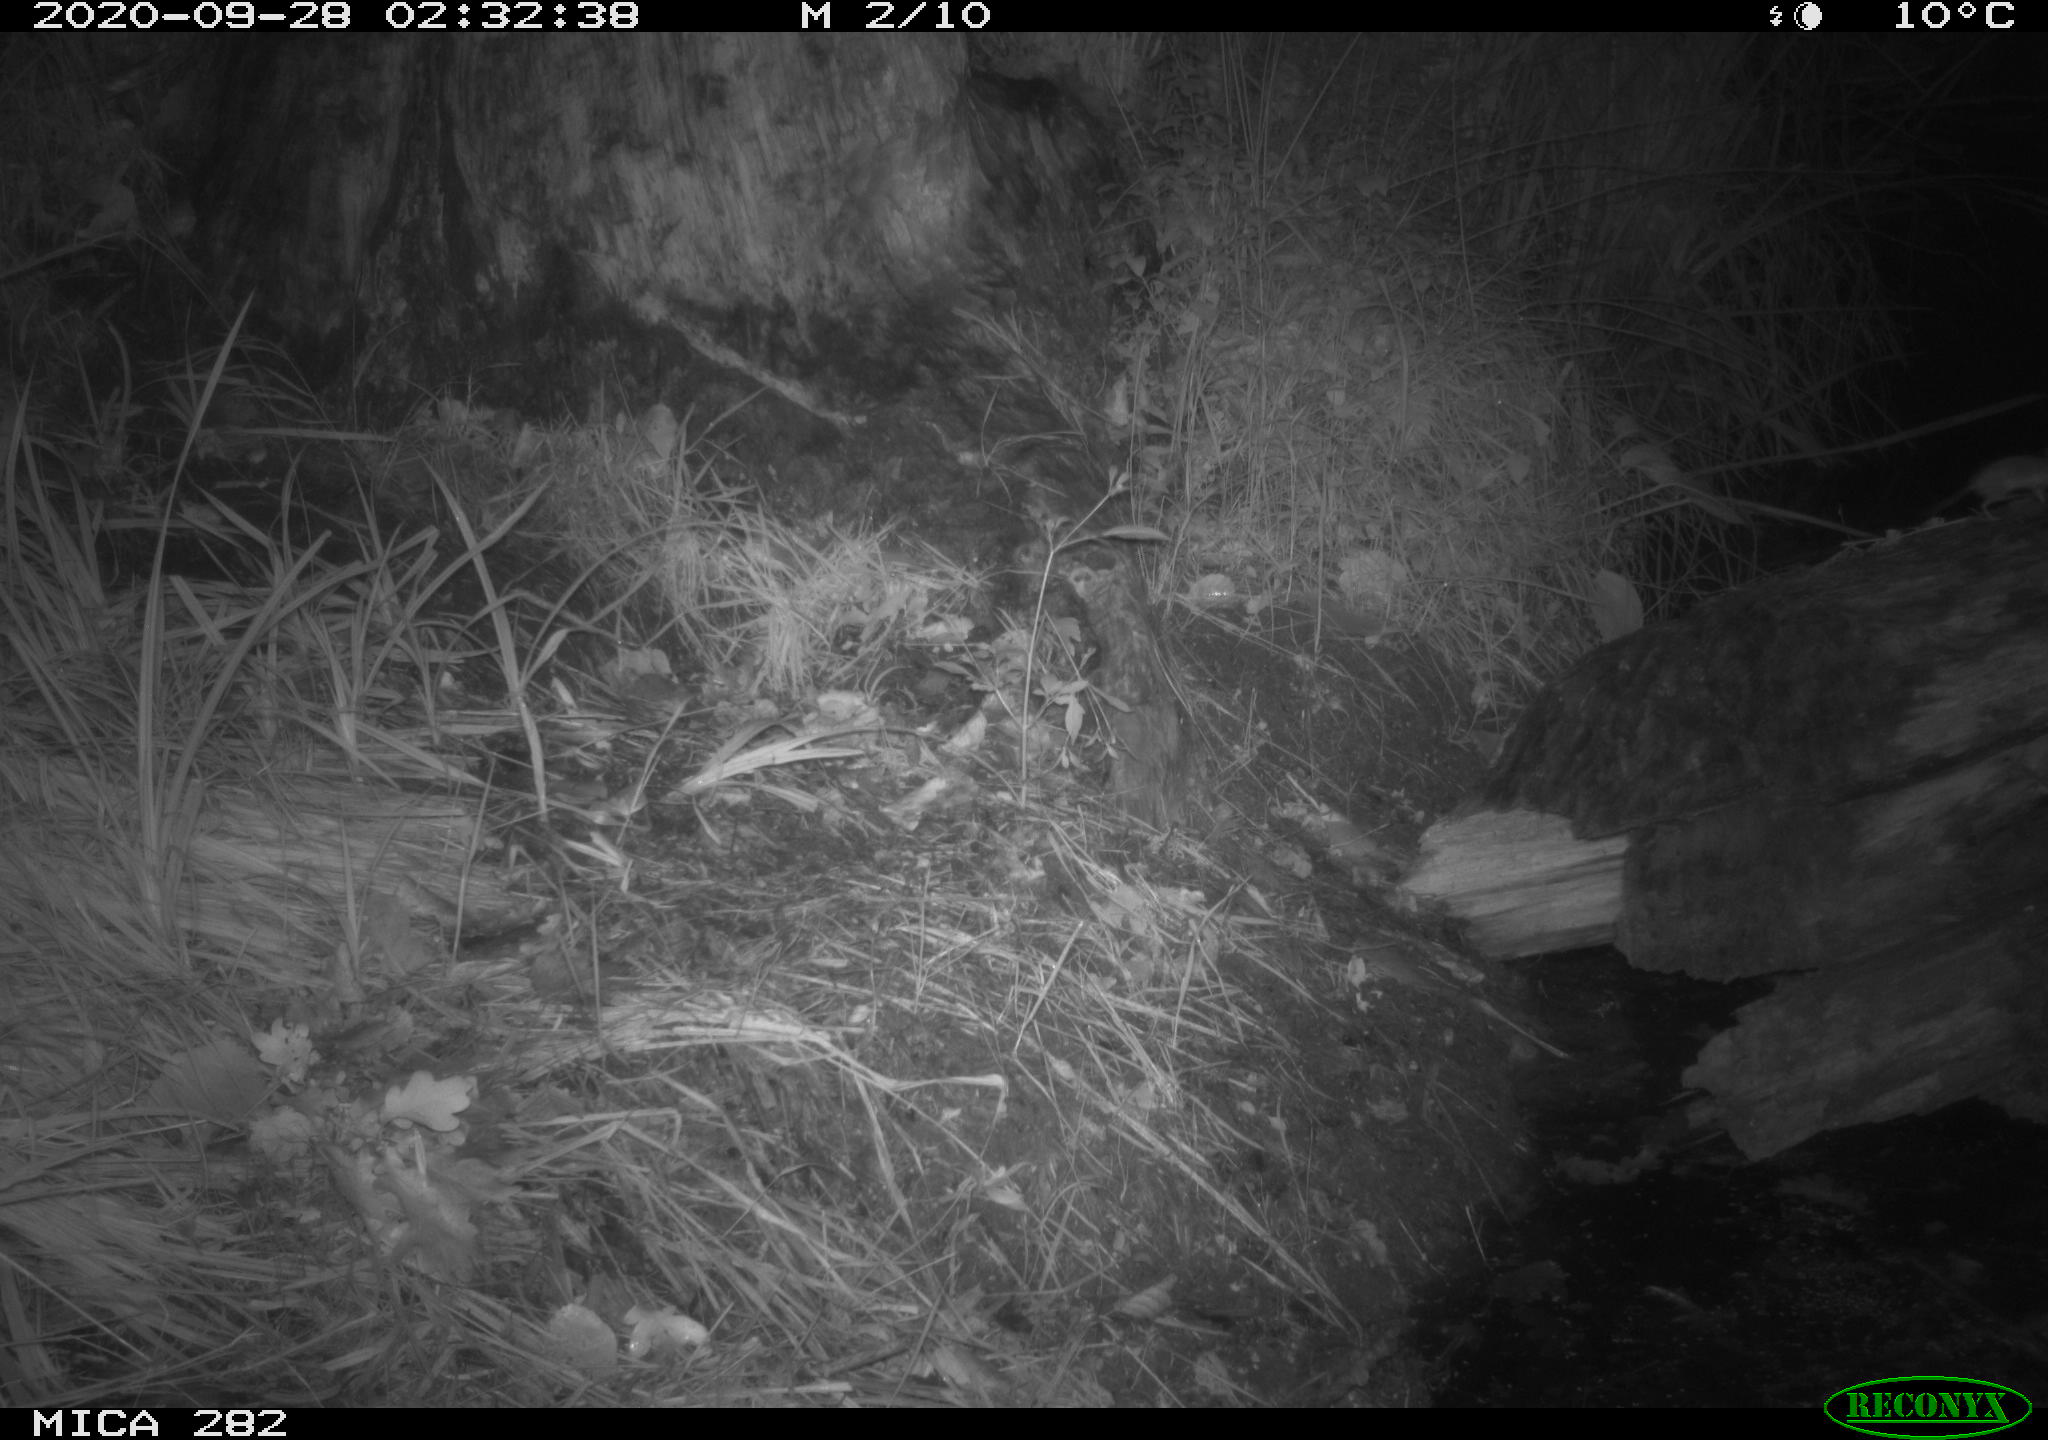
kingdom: Animalia
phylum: Chordata
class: Mammalia
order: Soricomorpha
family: Soricidae
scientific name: Soricidae
